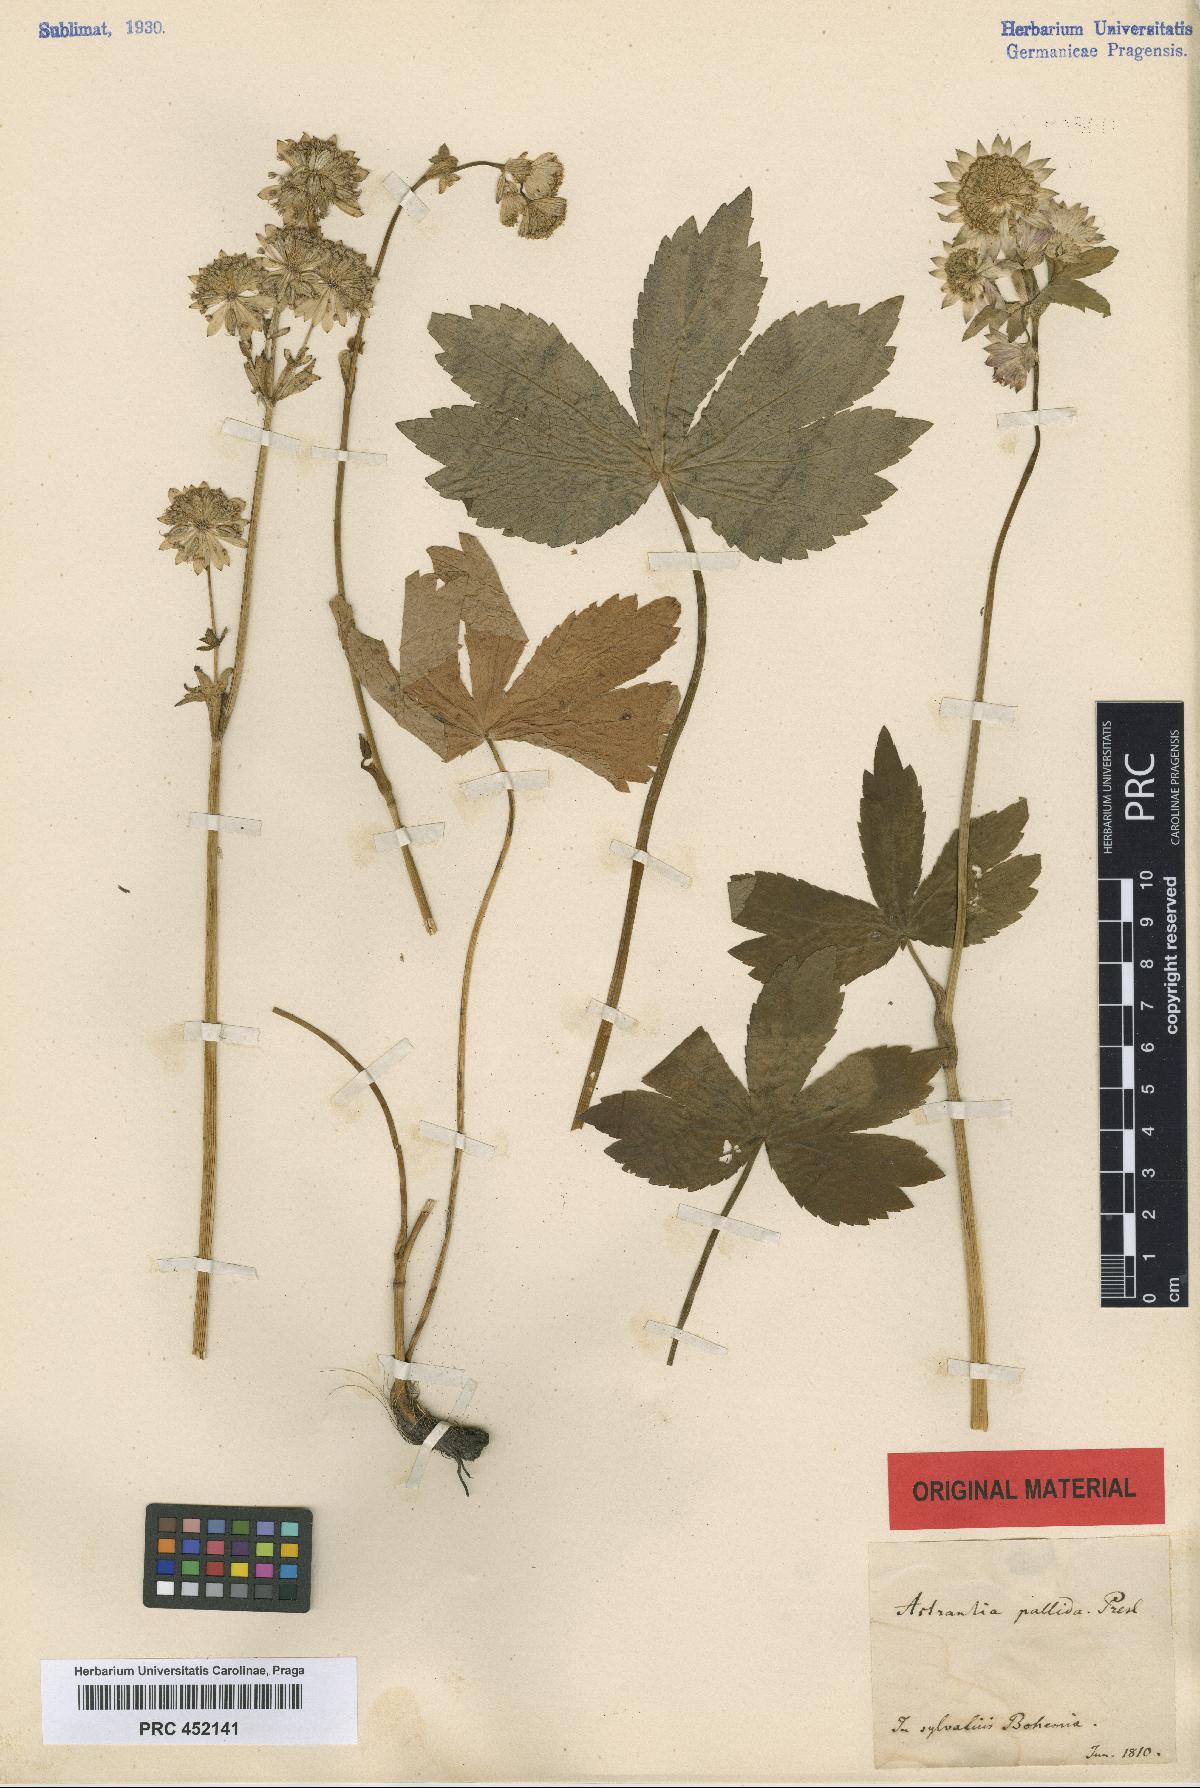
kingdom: Plantae
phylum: Tracheophyta
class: Magnoliopsida
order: Apiales
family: Apiaceae
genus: Astrantia
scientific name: Astrantia major
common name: Greater masterwort
